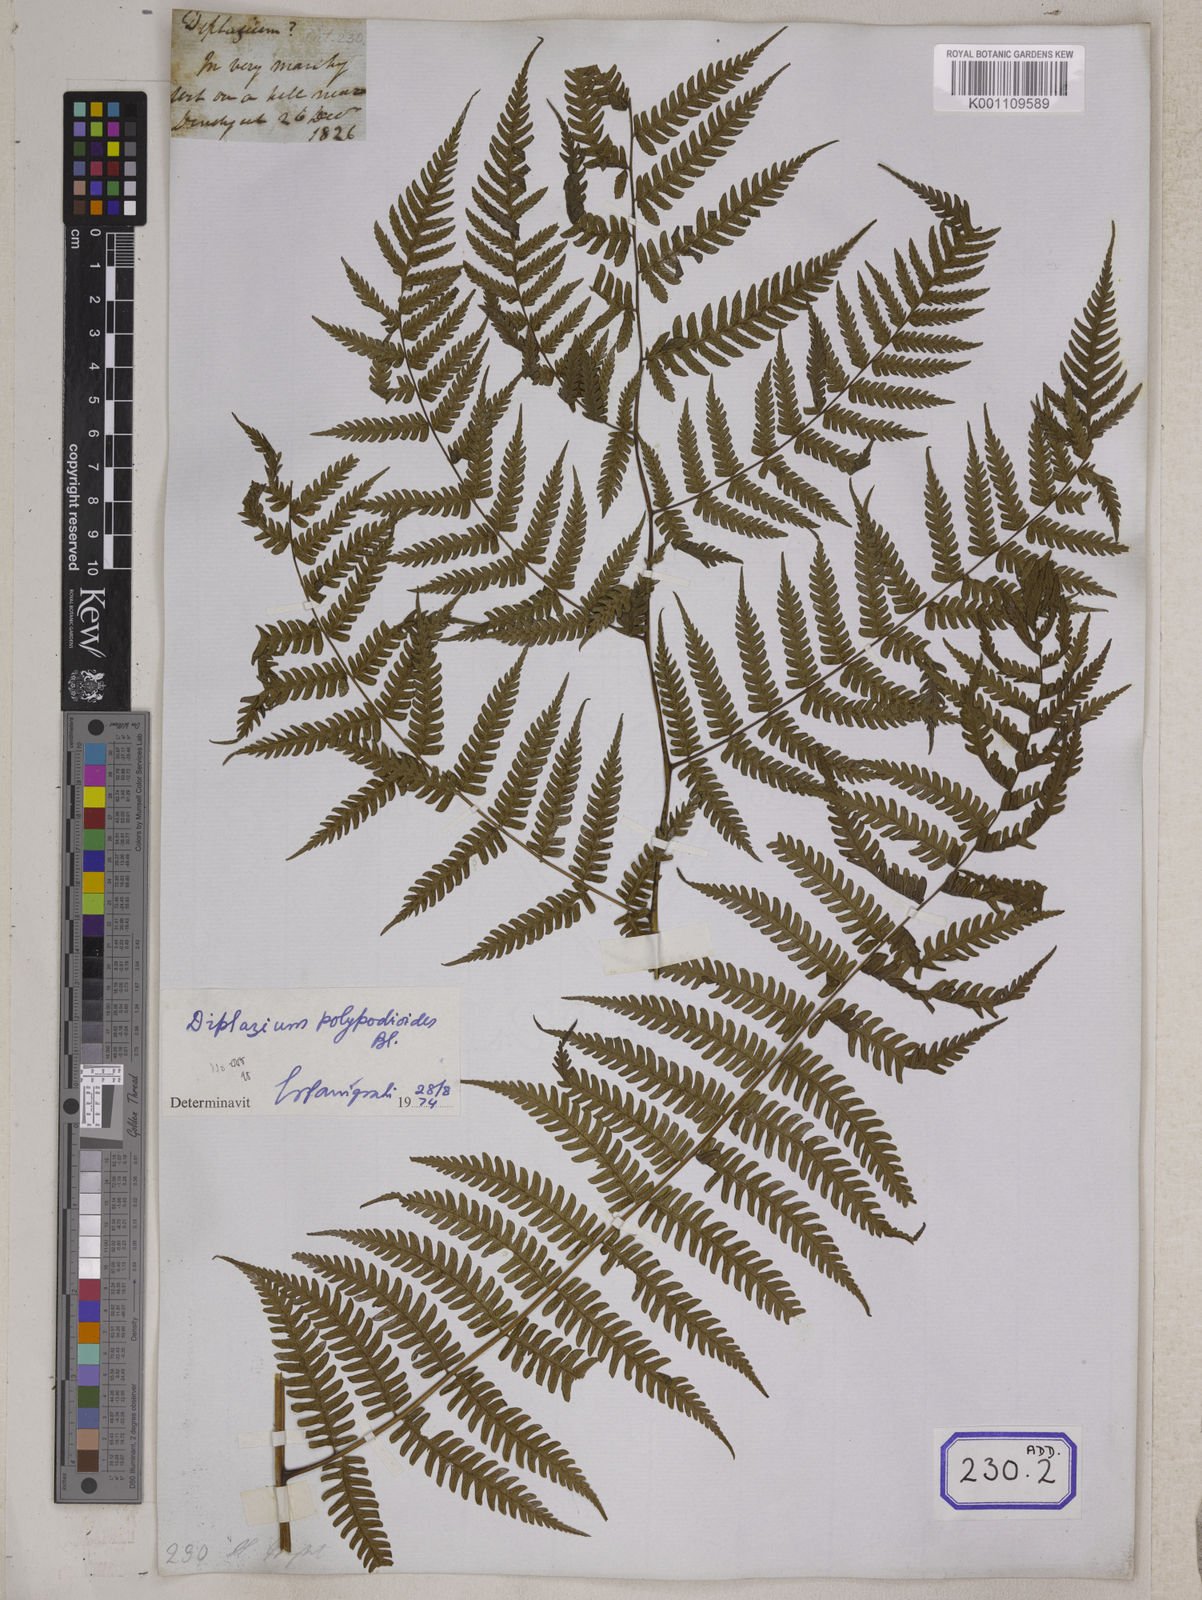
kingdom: Plantae
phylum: Tracheophyta
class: Polypodiopsida
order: Polypodiales
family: Athyriaceae
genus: Diplazium
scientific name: Diplazium maximum
